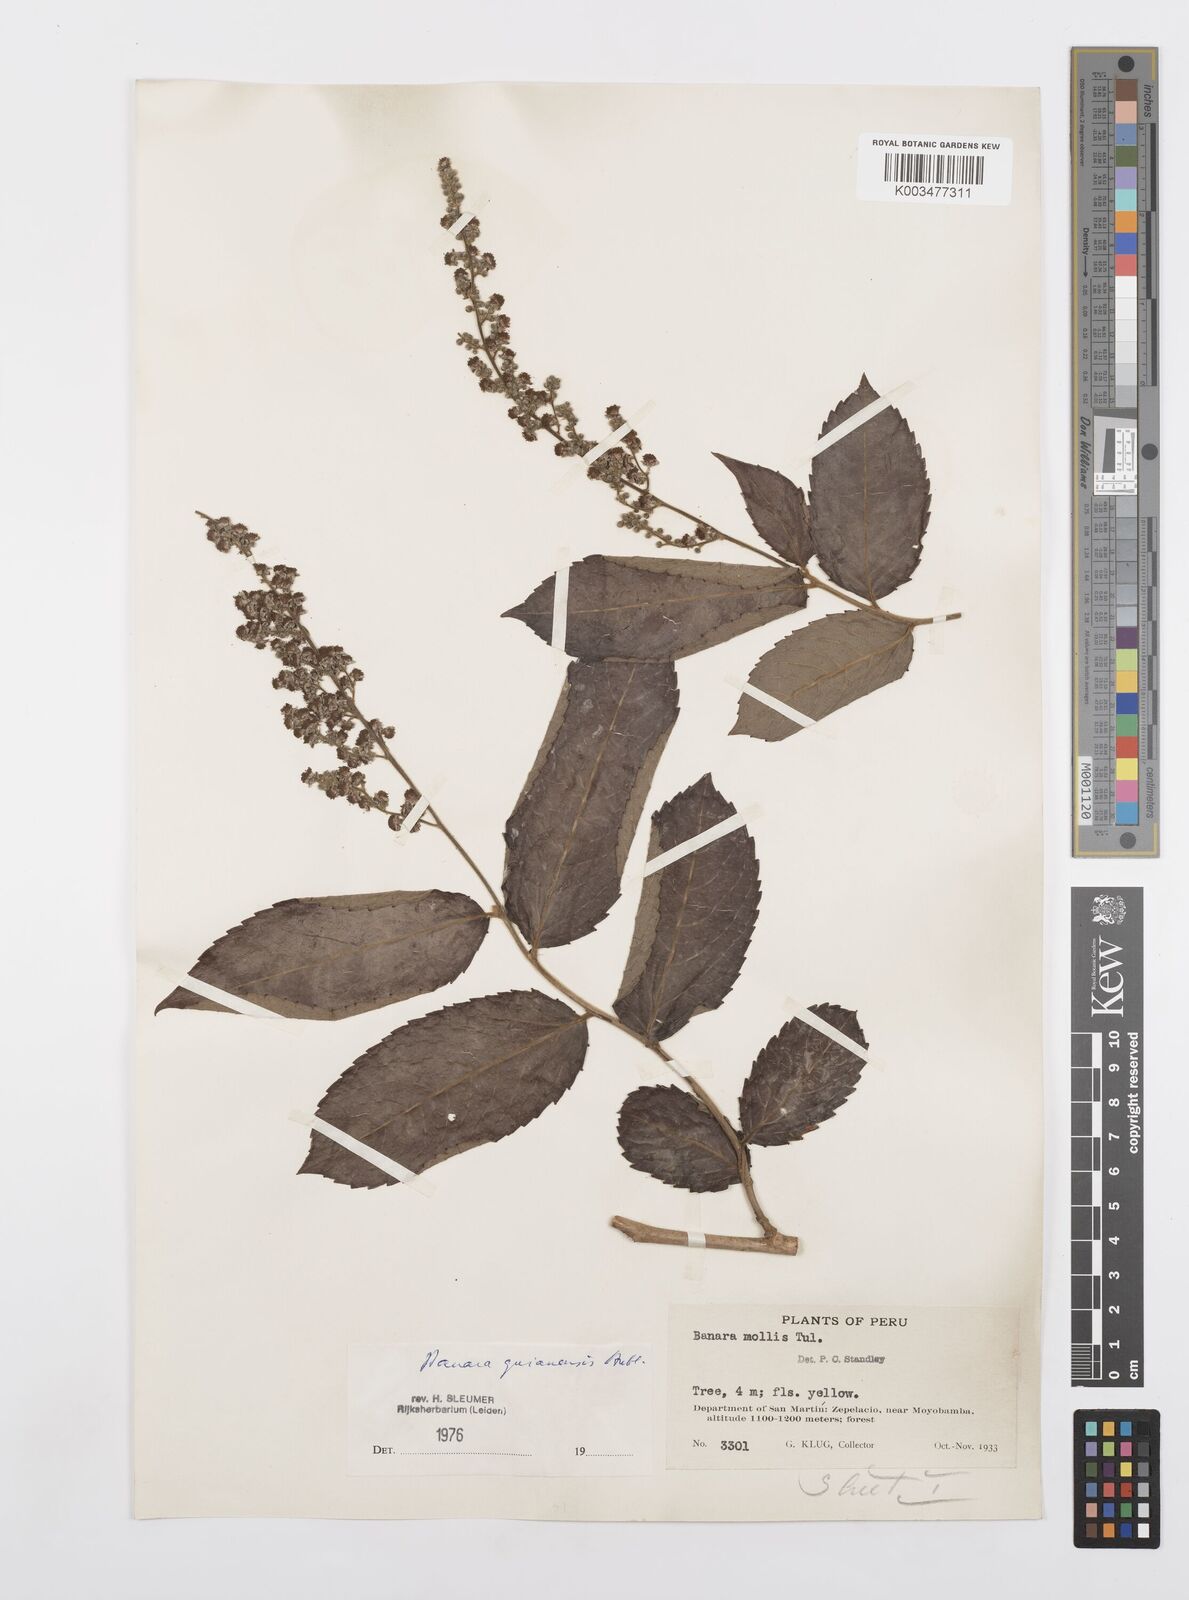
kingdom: Plantae
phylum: Tracheophyta
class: Magnoliopsida
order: Malpighiales
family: Salicaceae
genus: Banara
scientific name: Banara guianensis
